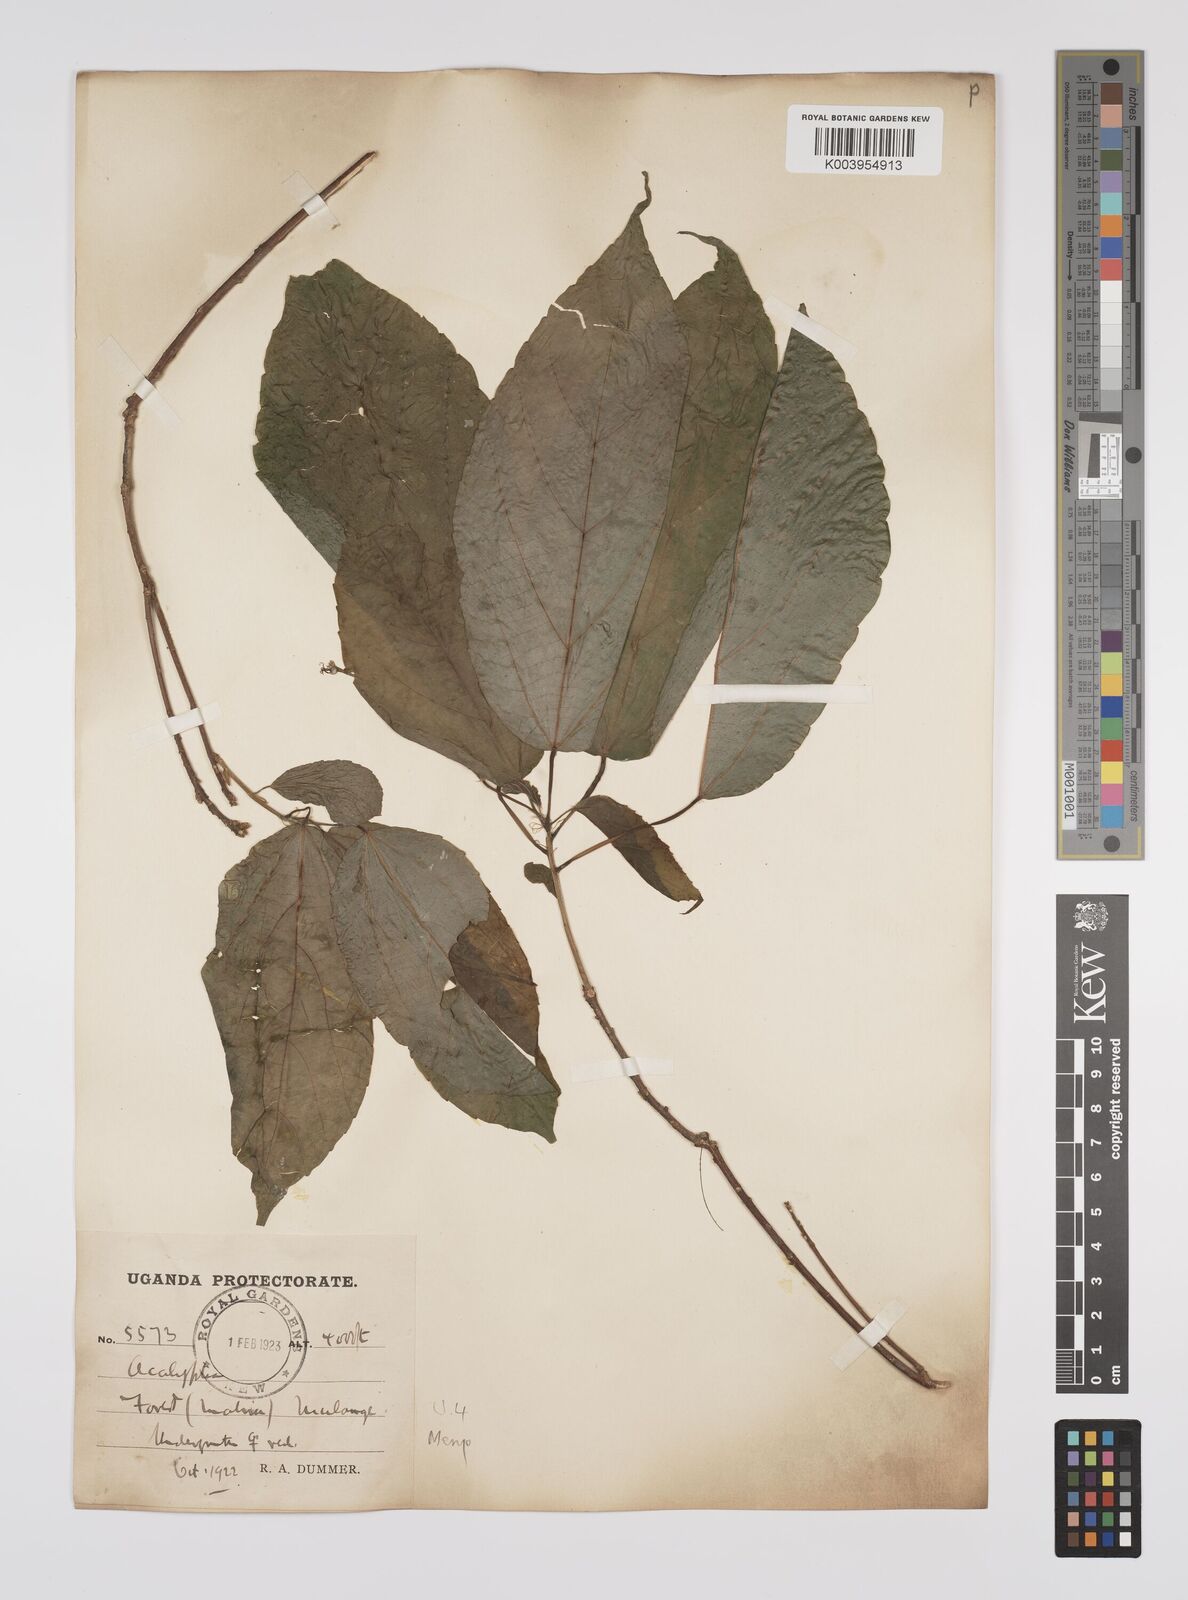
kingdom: Plantae
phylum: Tracheophyta
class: Magnoliopsida
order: Malpighiales
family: Euphorbiaceae
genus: Alchornea
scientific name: Alchornea laxiflora
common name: Lowveld bead-string
